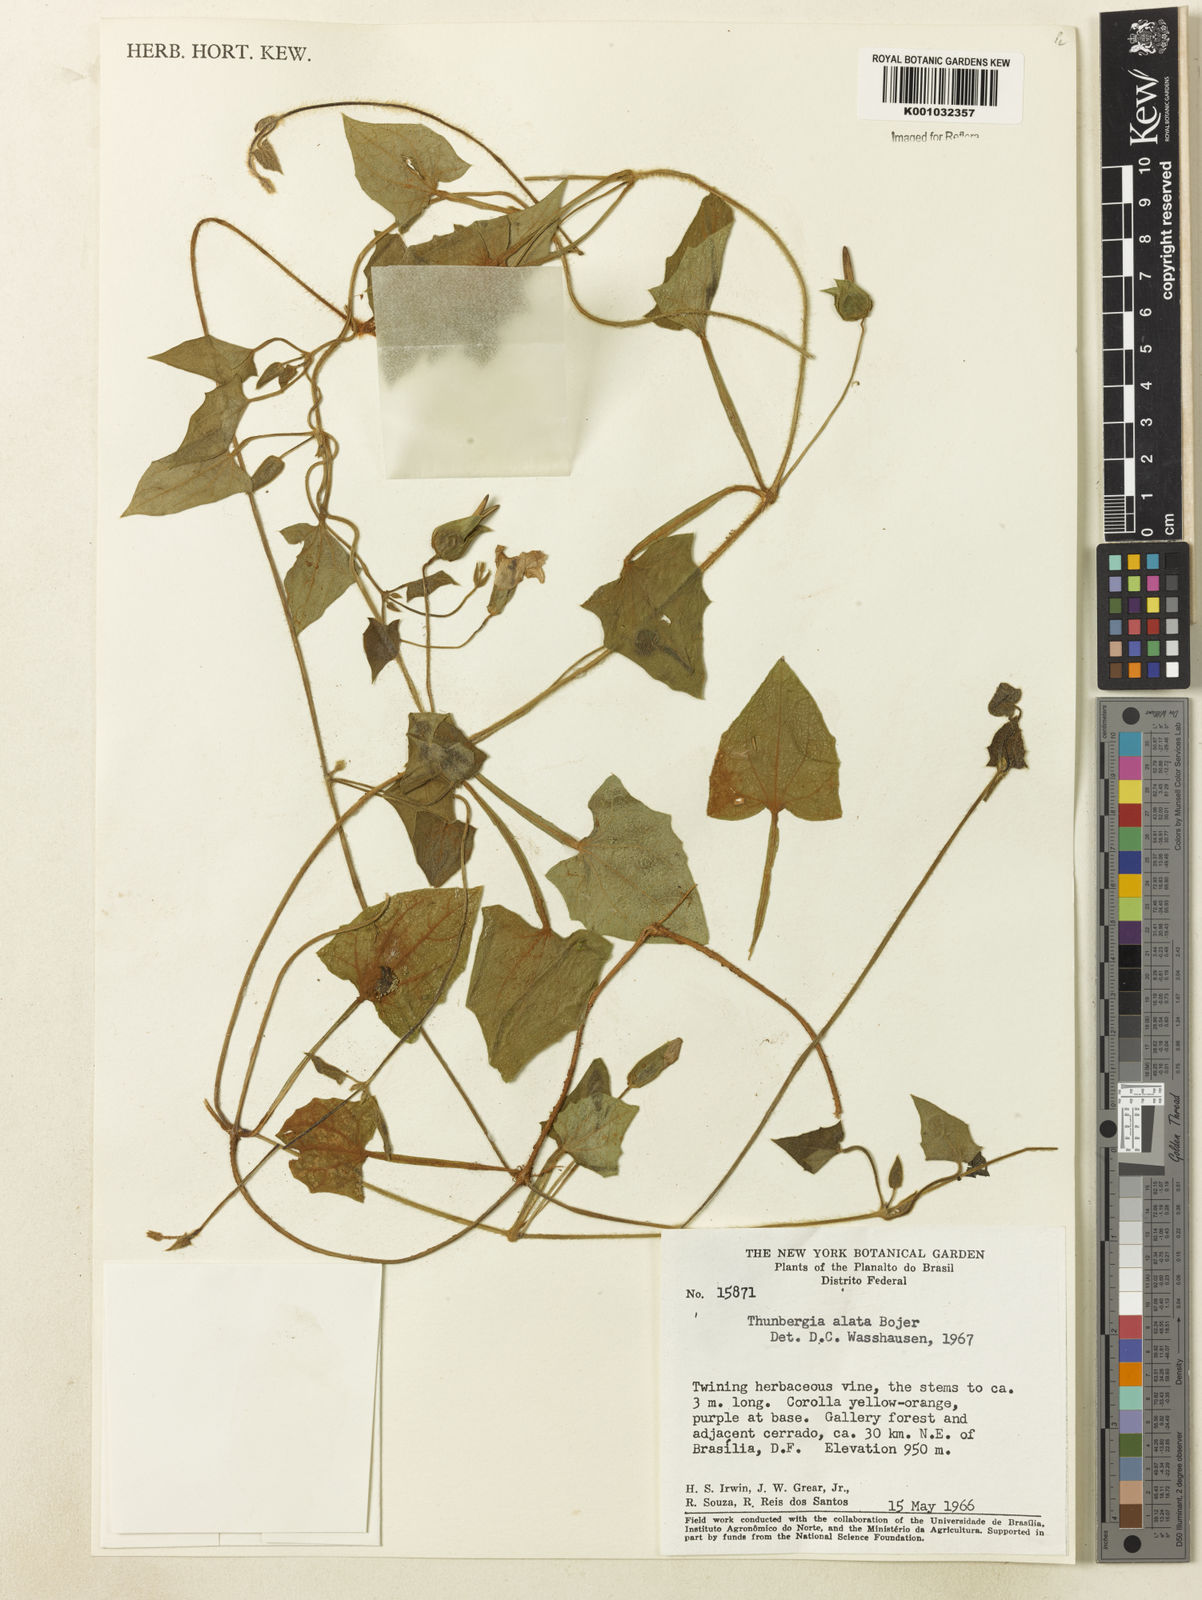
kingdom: Plantae
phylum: Tracheophyta
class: Magnoliopsida
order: Lamiales
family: Acanthaceae
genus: Thunbergia
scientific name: Thunbergia alata
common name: Blackeyed susan vine
